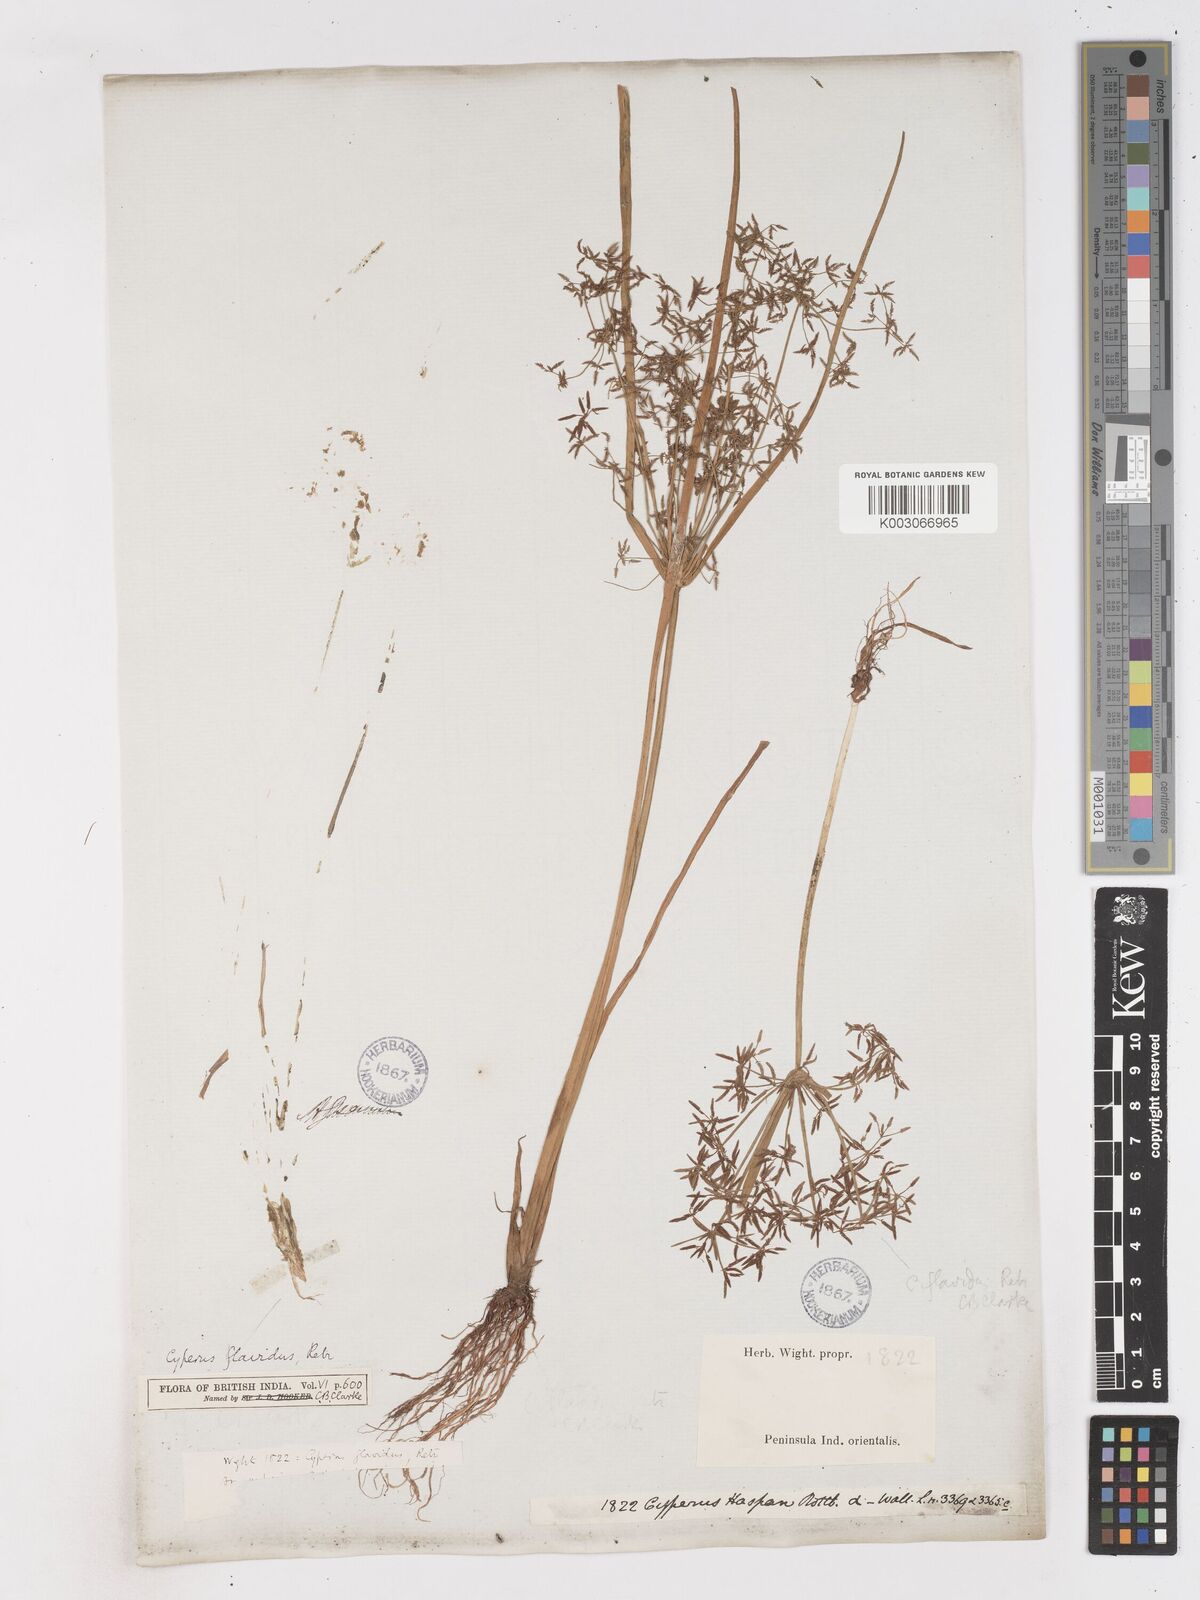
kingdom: Plantae
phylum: Tracheophyta
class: Liliopsida
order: Poales
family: Cyperaceae
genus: Cyperus
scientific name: Cyperus tenuispica
